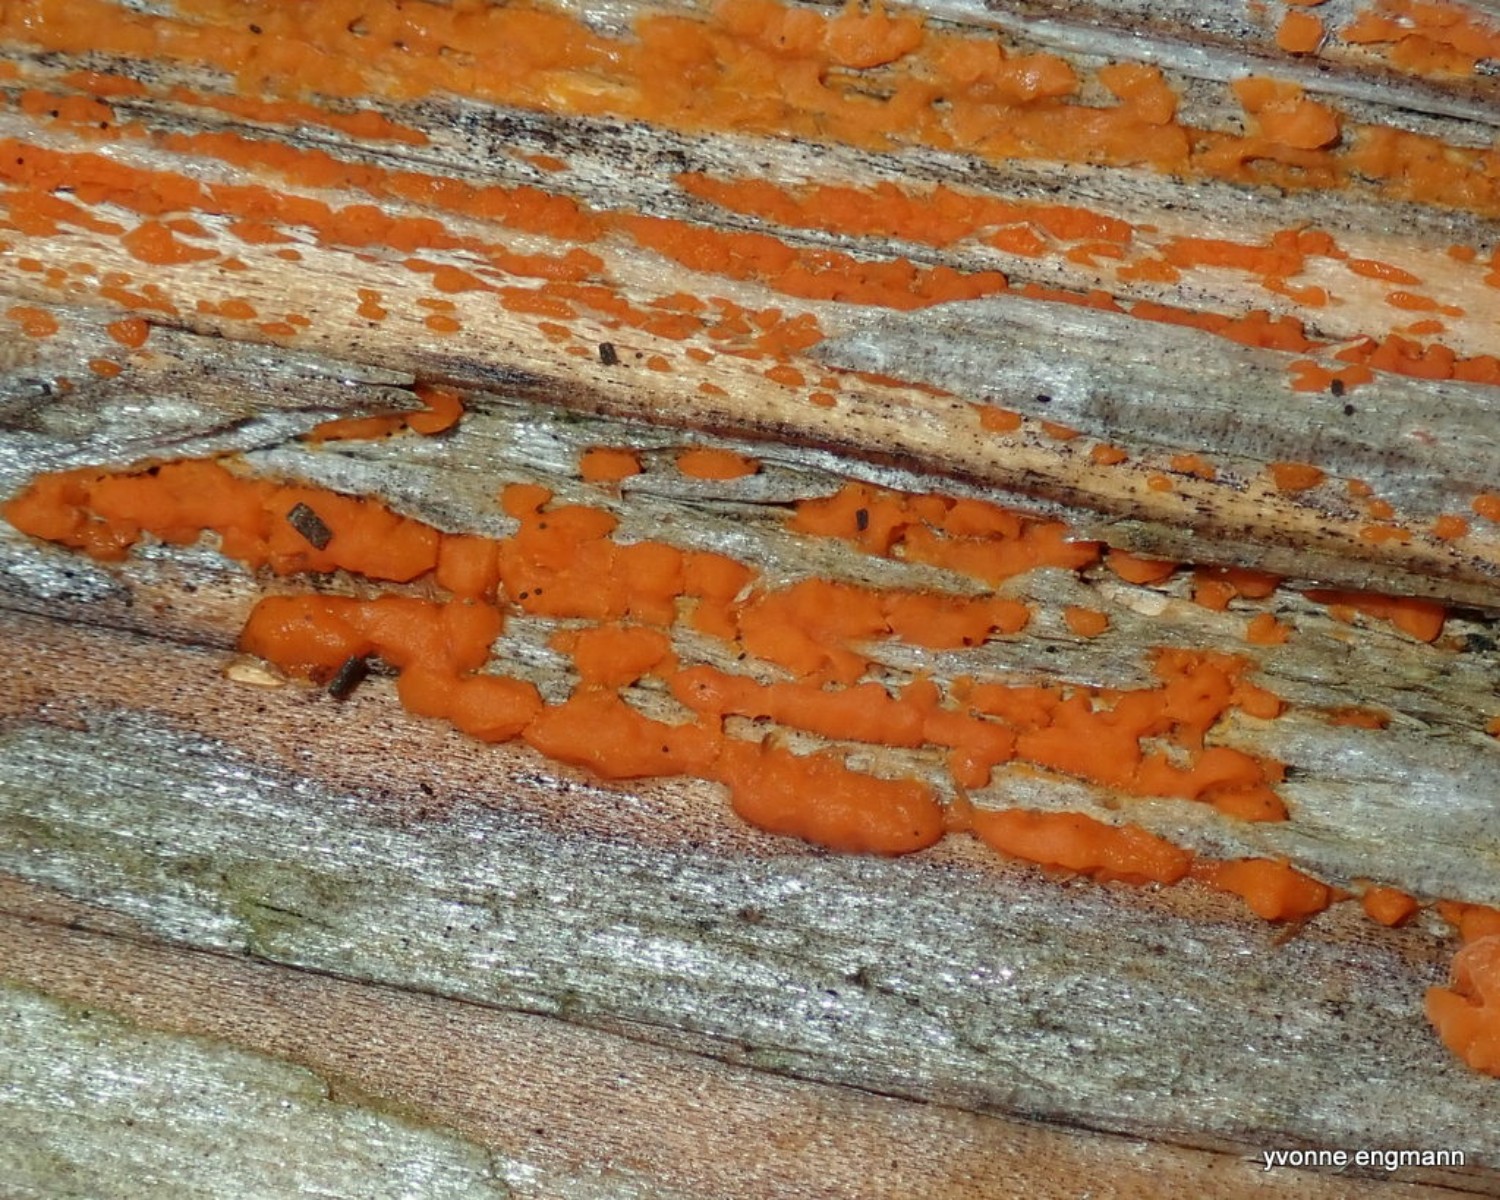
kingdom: Fungi
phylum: Basidiomycota
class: Dacrymycetes
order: Dacrymycetales
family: Dacrymycetaceae
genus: Dacrymyces
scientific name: Dacrymyces stillatus
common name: almindelig tåresvamp
